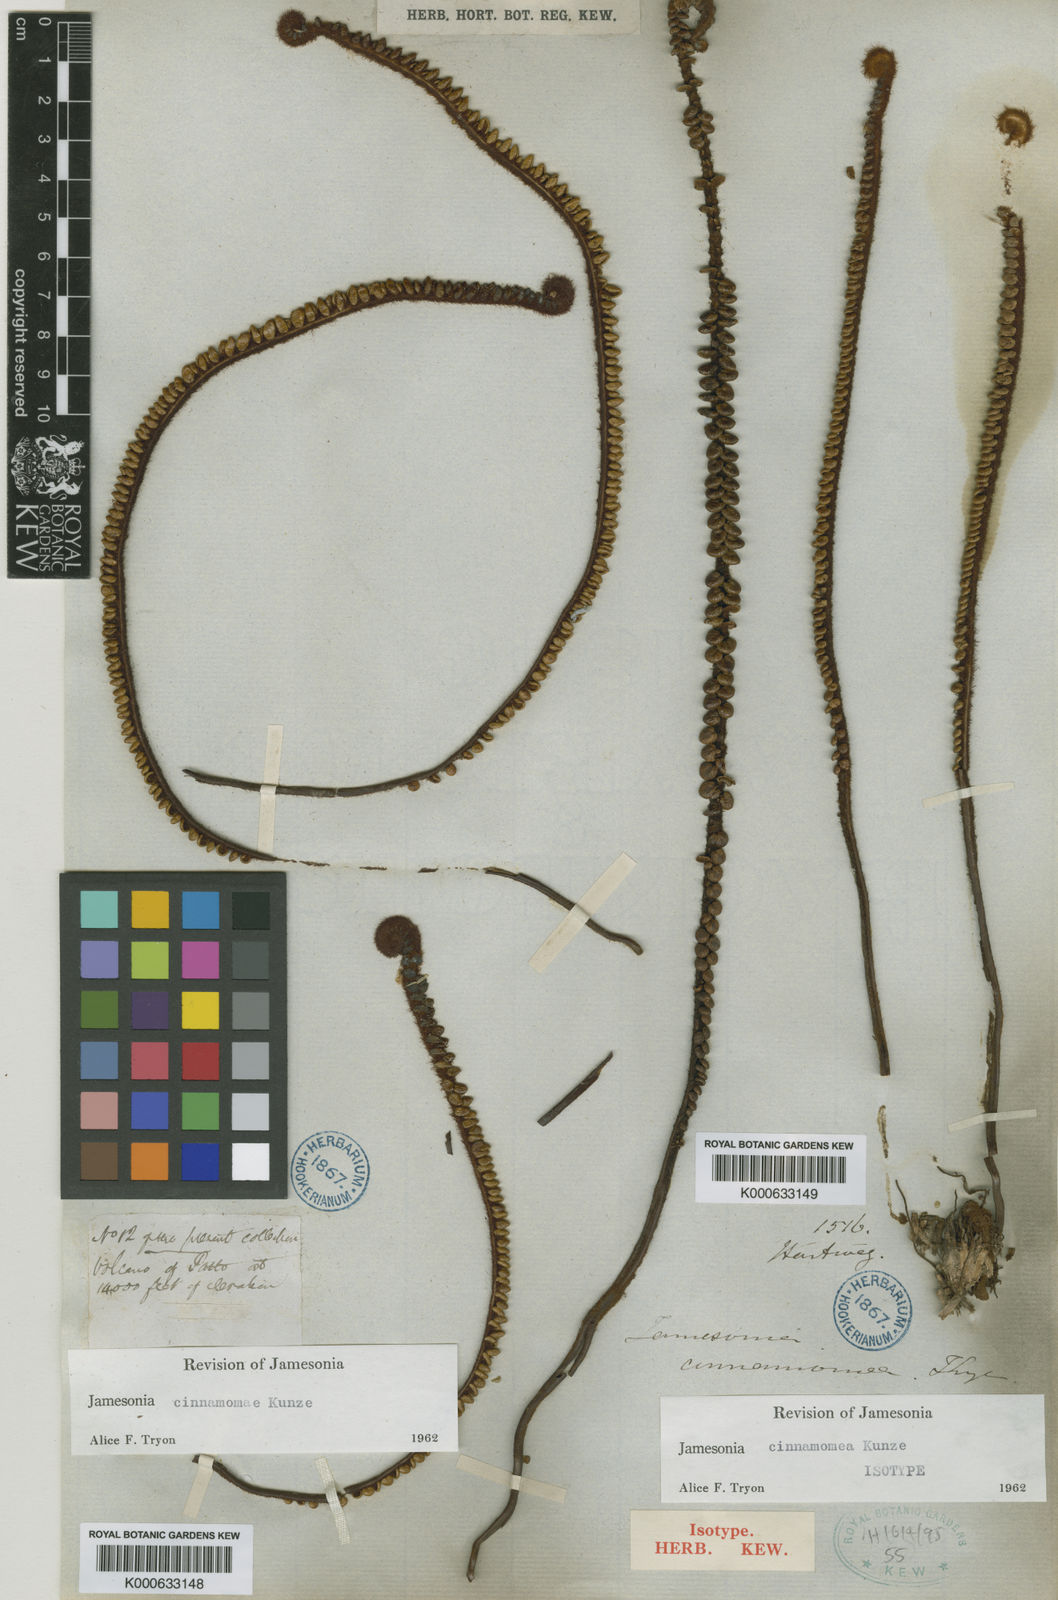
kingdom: Plantae
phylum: Tracheophyta
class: Polypodiopsida
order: Polypodiales
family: Pteridaceae
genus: Jamesonia
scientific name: Jamesonia cinnamomea
